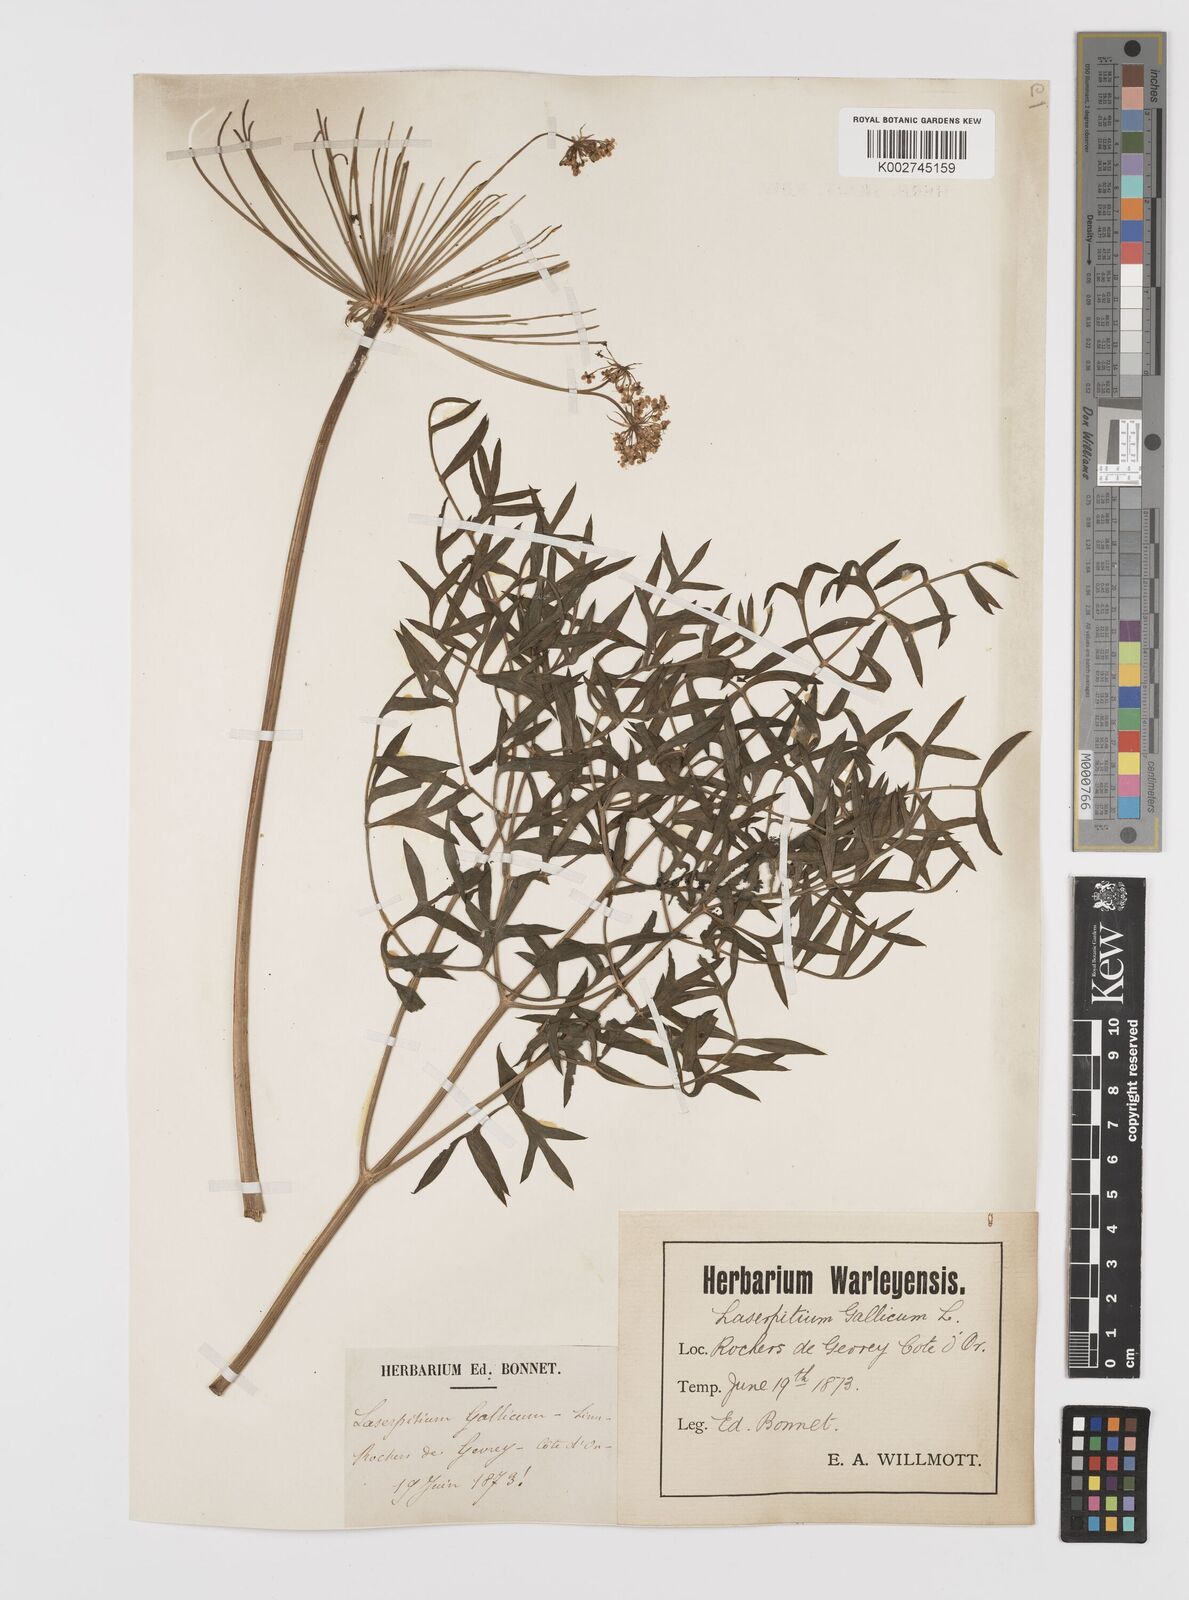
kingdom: Plantae
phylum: Tracheophyta
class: Magnoliopsida
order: Apiales
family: Apiaceae
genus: Laserpitium
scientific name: Laserpitium gallicum
